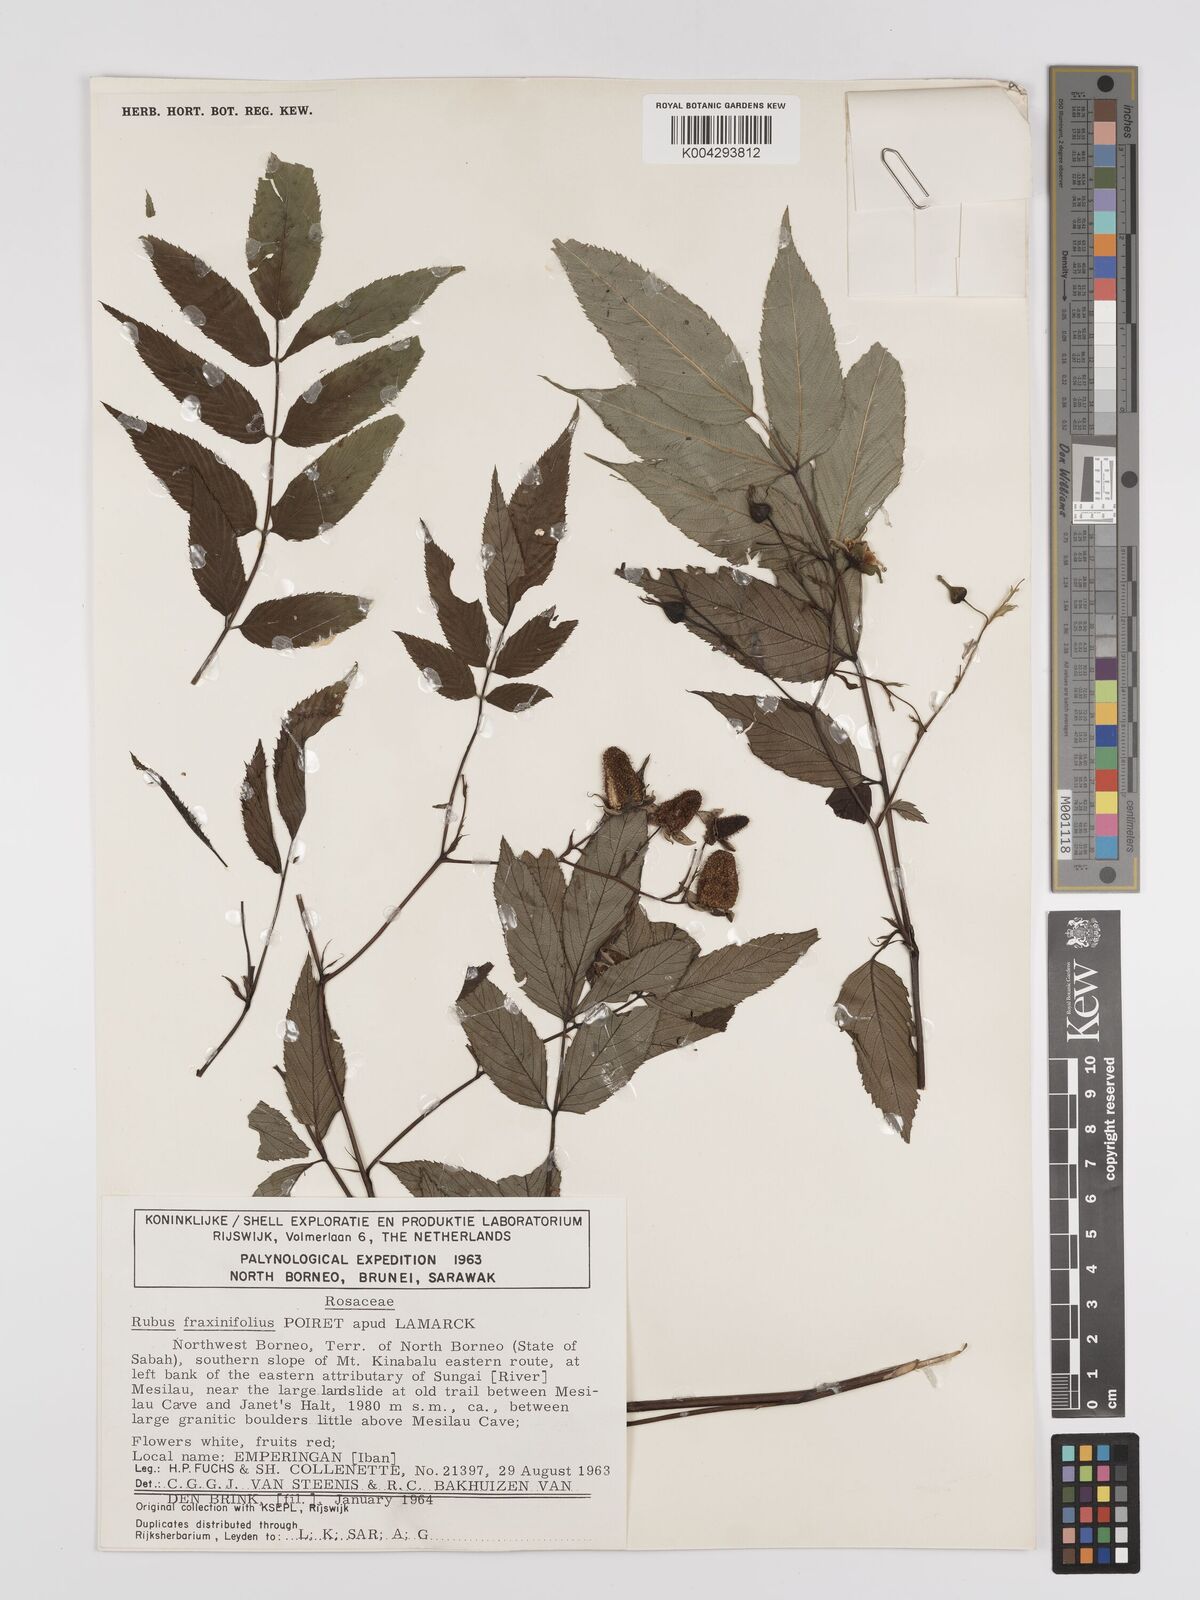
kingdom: Plantae
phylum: Tracheophyta
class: Magnoliopsida
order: Rosales
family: Rosaceae
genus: Rubus
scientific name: Rubus fraxinifolius
